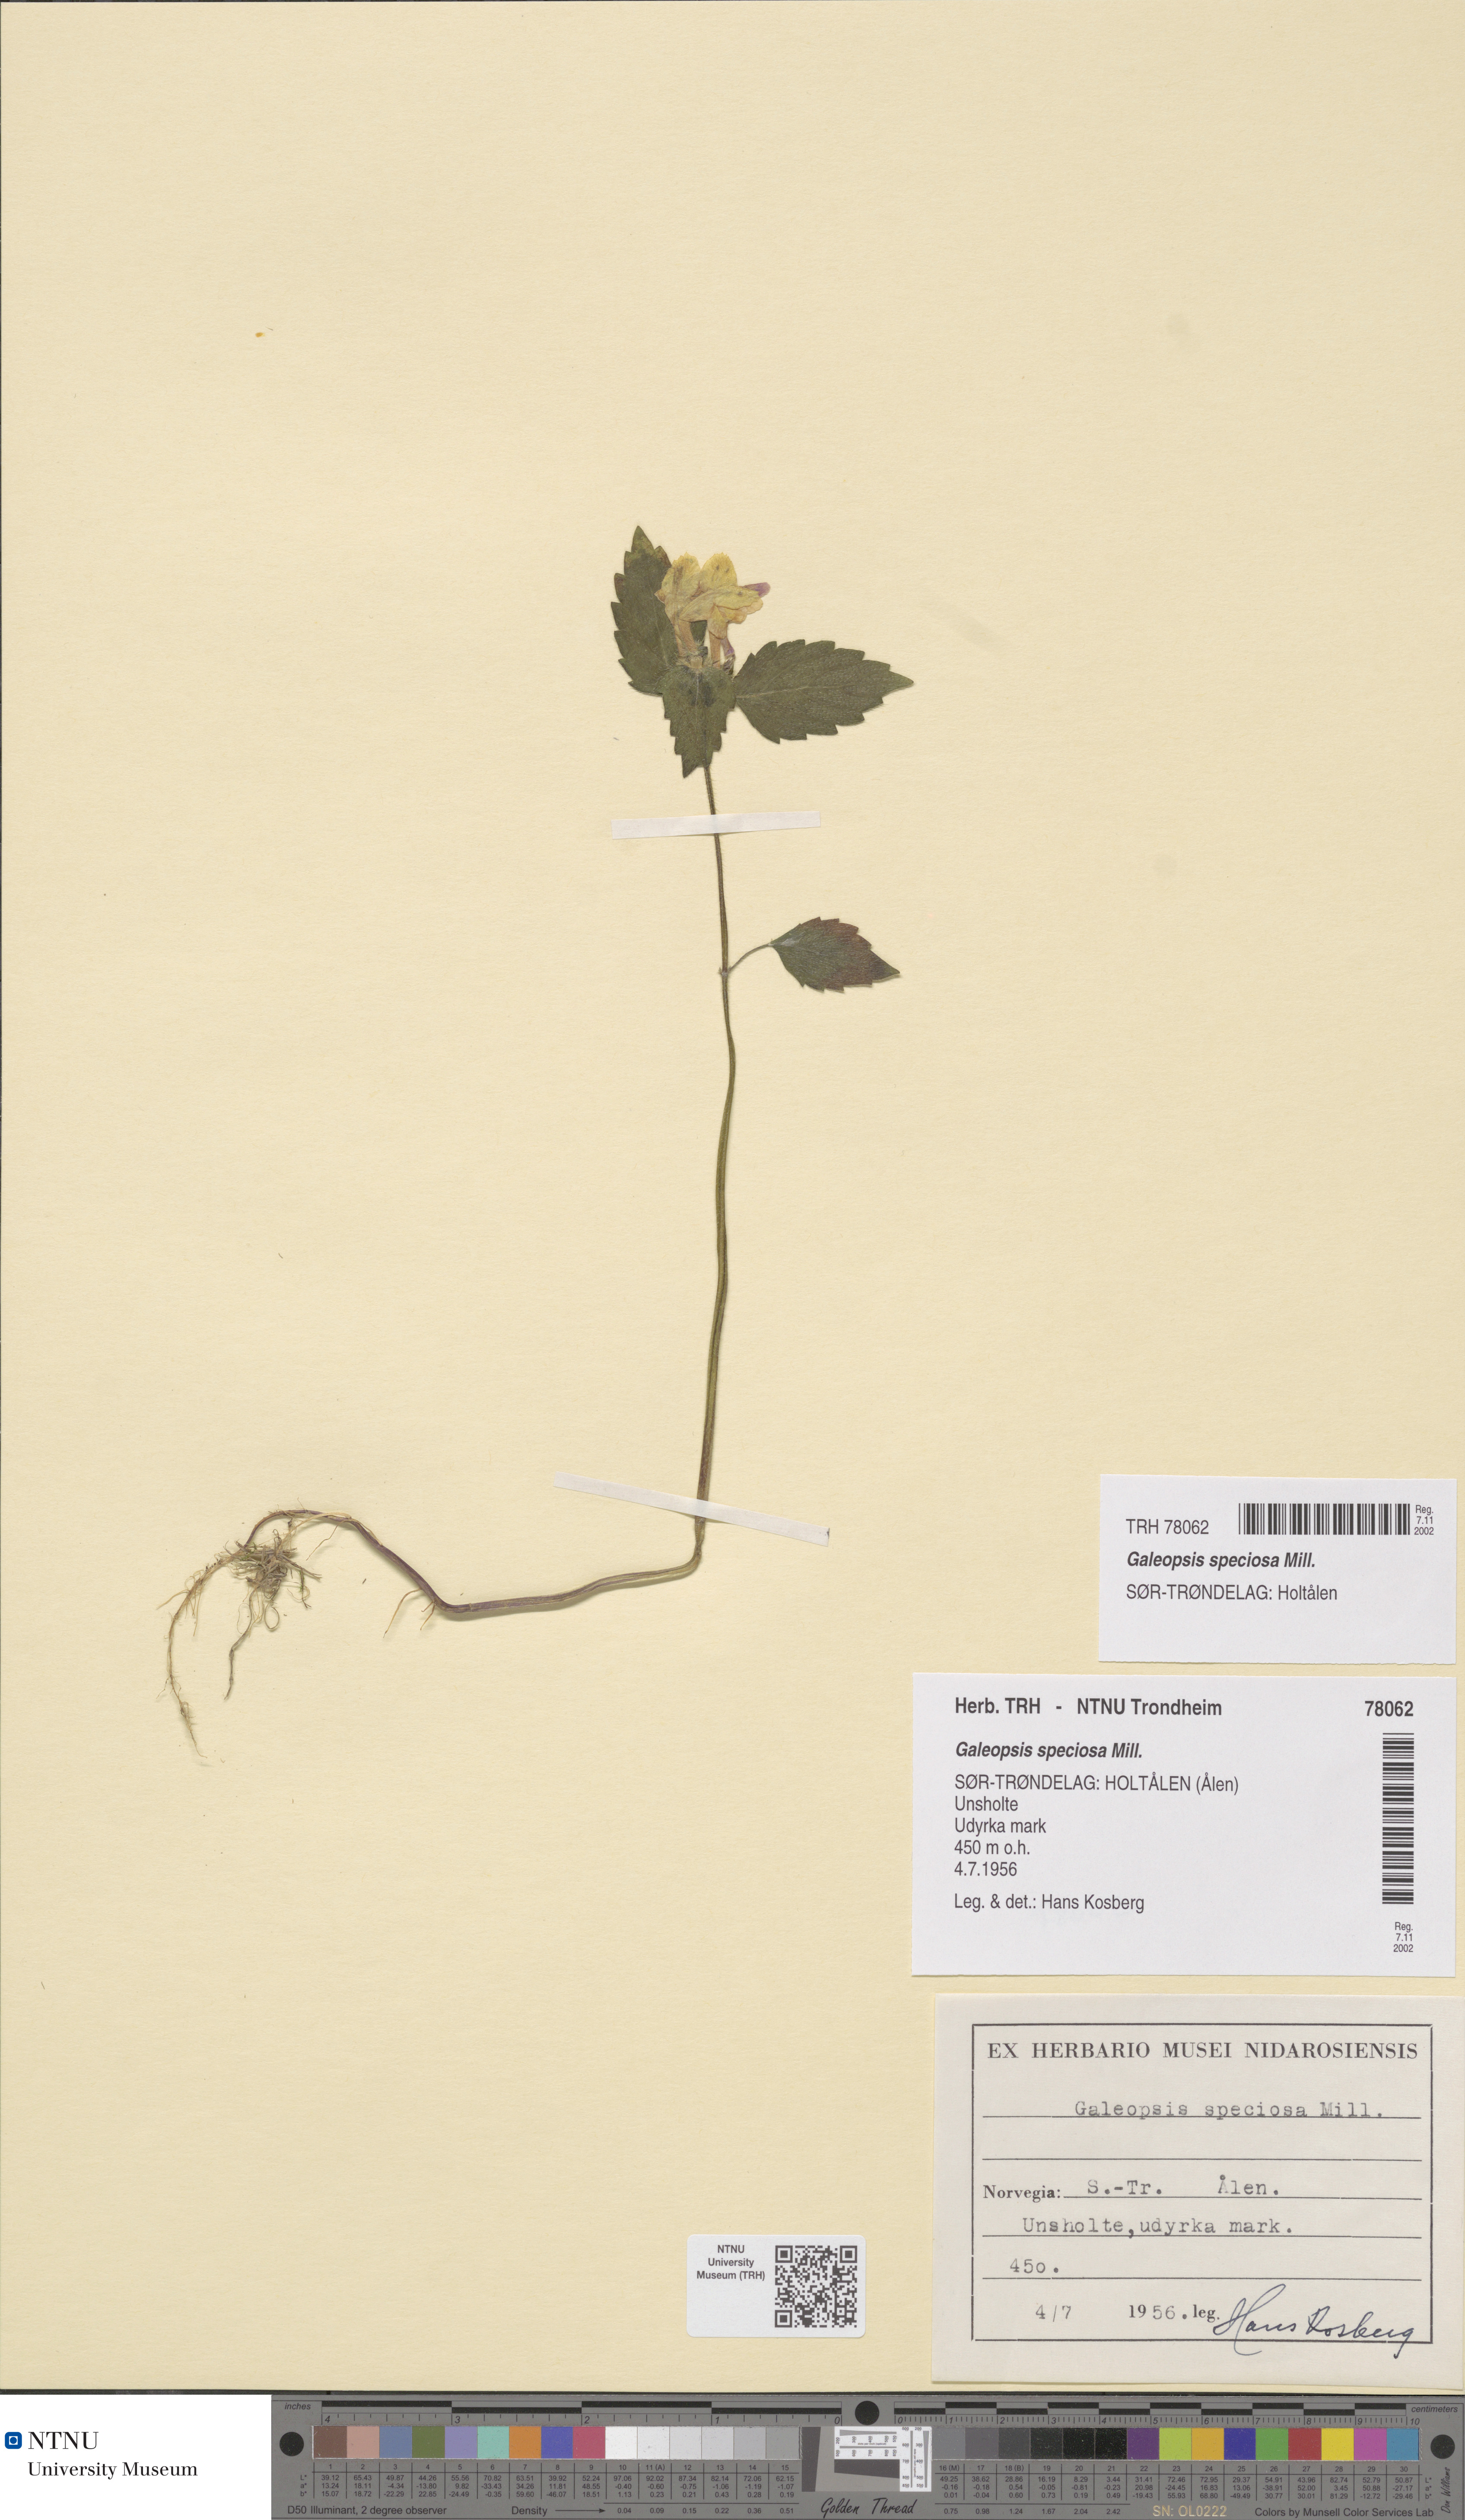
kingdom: Plantae
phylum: Tracheophyta
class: Magnoliopsida
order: Lamiales
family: Lamiaceae
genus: Galeopsis
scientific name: Galeopsis speciosa
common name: Large-flowered hemp-nettle
